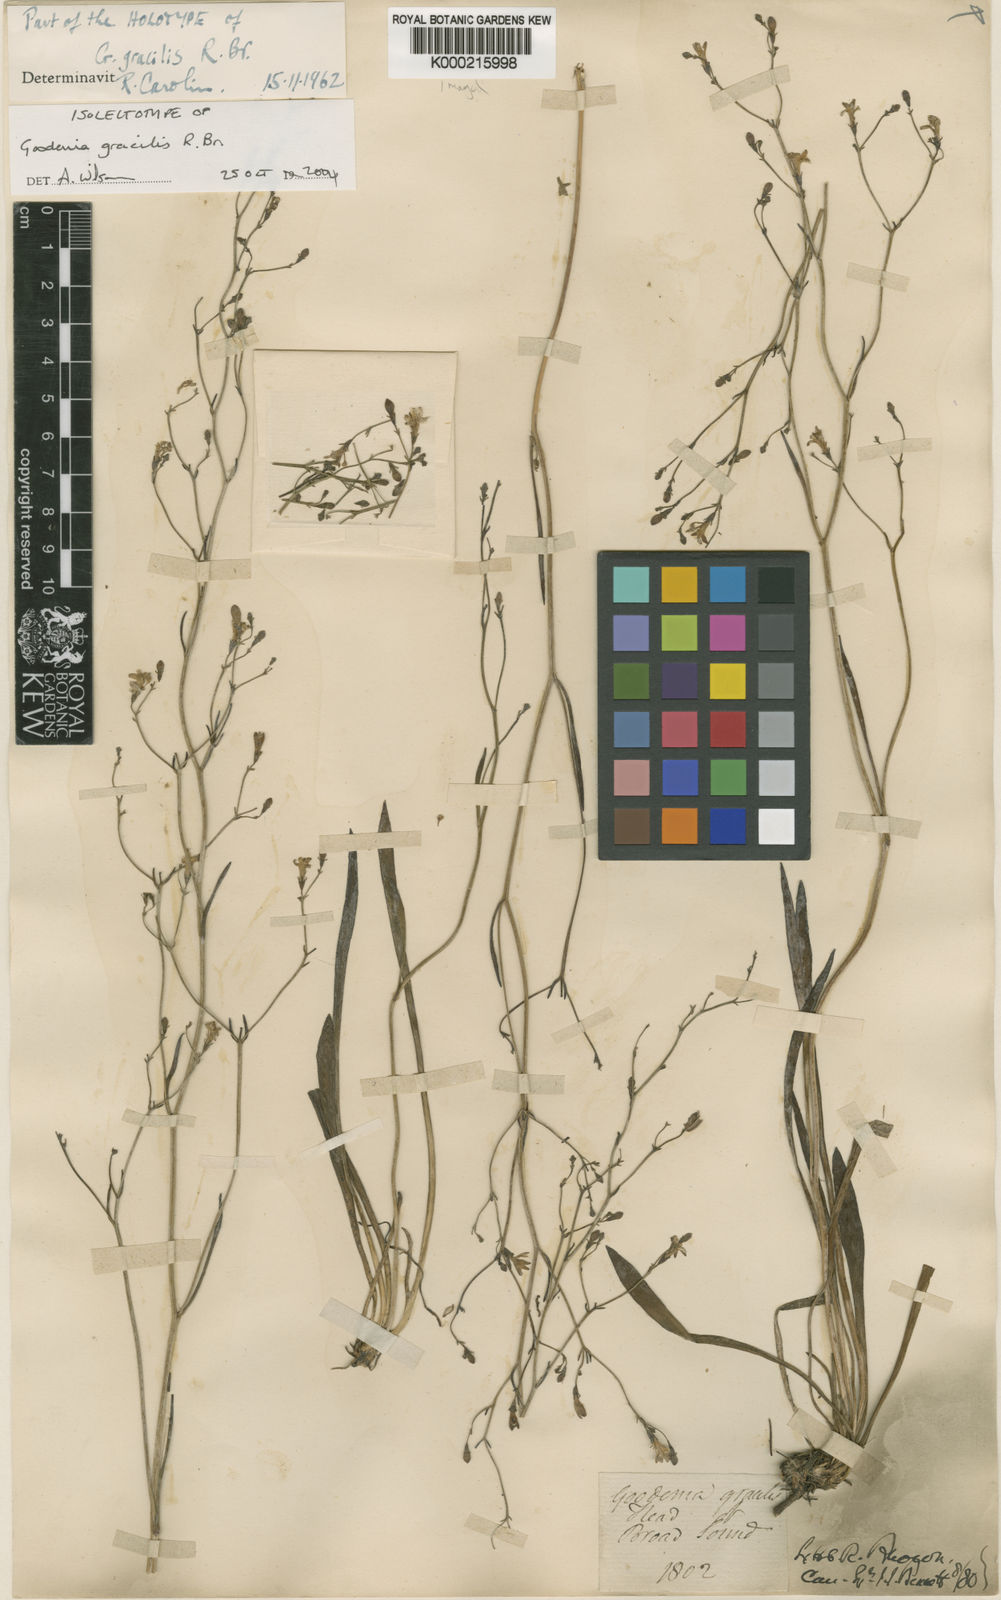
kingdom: Plantae
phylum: Tracheophyta
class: Magnoliopsida
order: Asterales
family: Goodeniaceae
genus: Goodenia
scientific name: Goodenia gracilis
